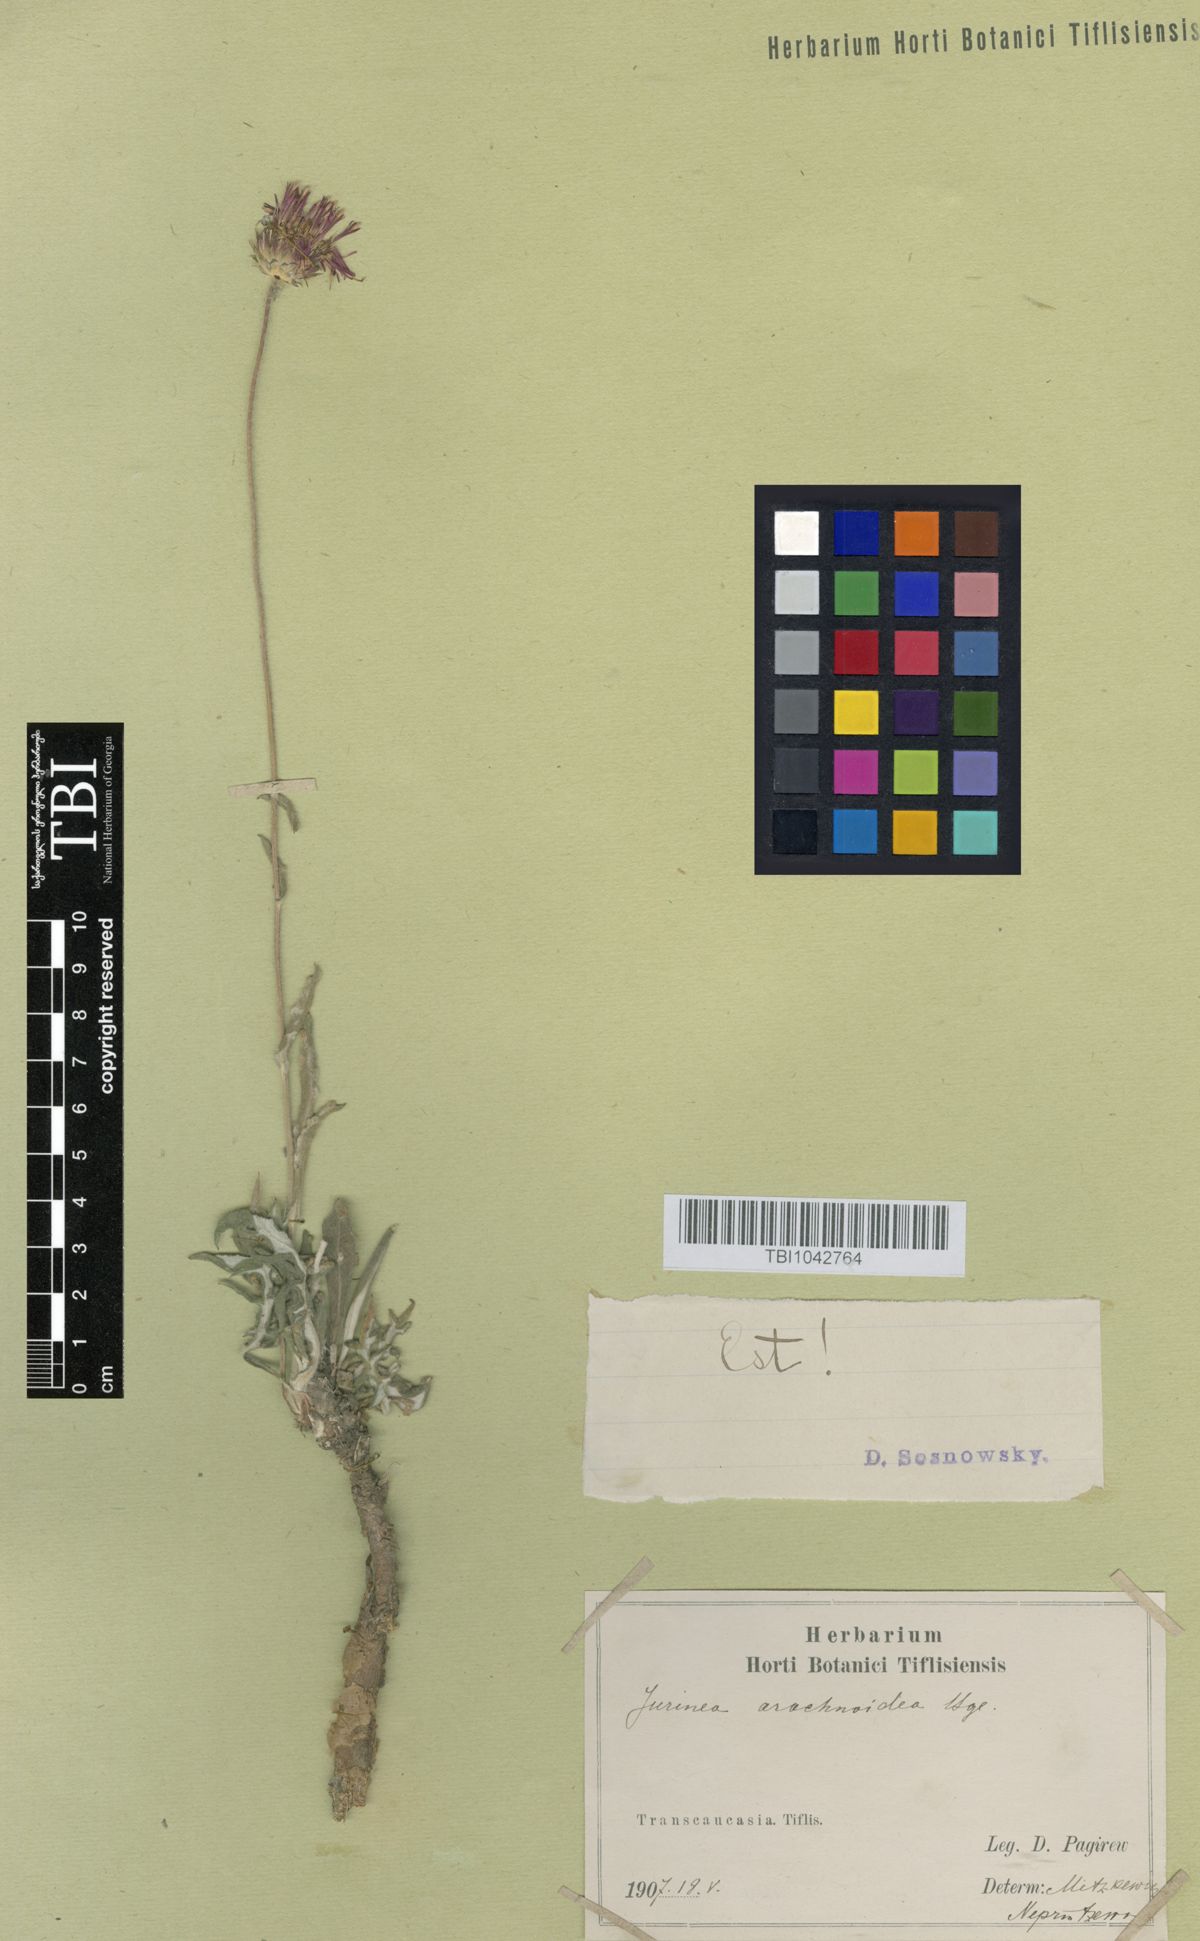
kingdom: Plantae
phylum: Tracheophyta
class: Magnoliopsida
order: Asterales
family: Asteraceae
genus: Jurinea
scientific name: Jurinea blanda
